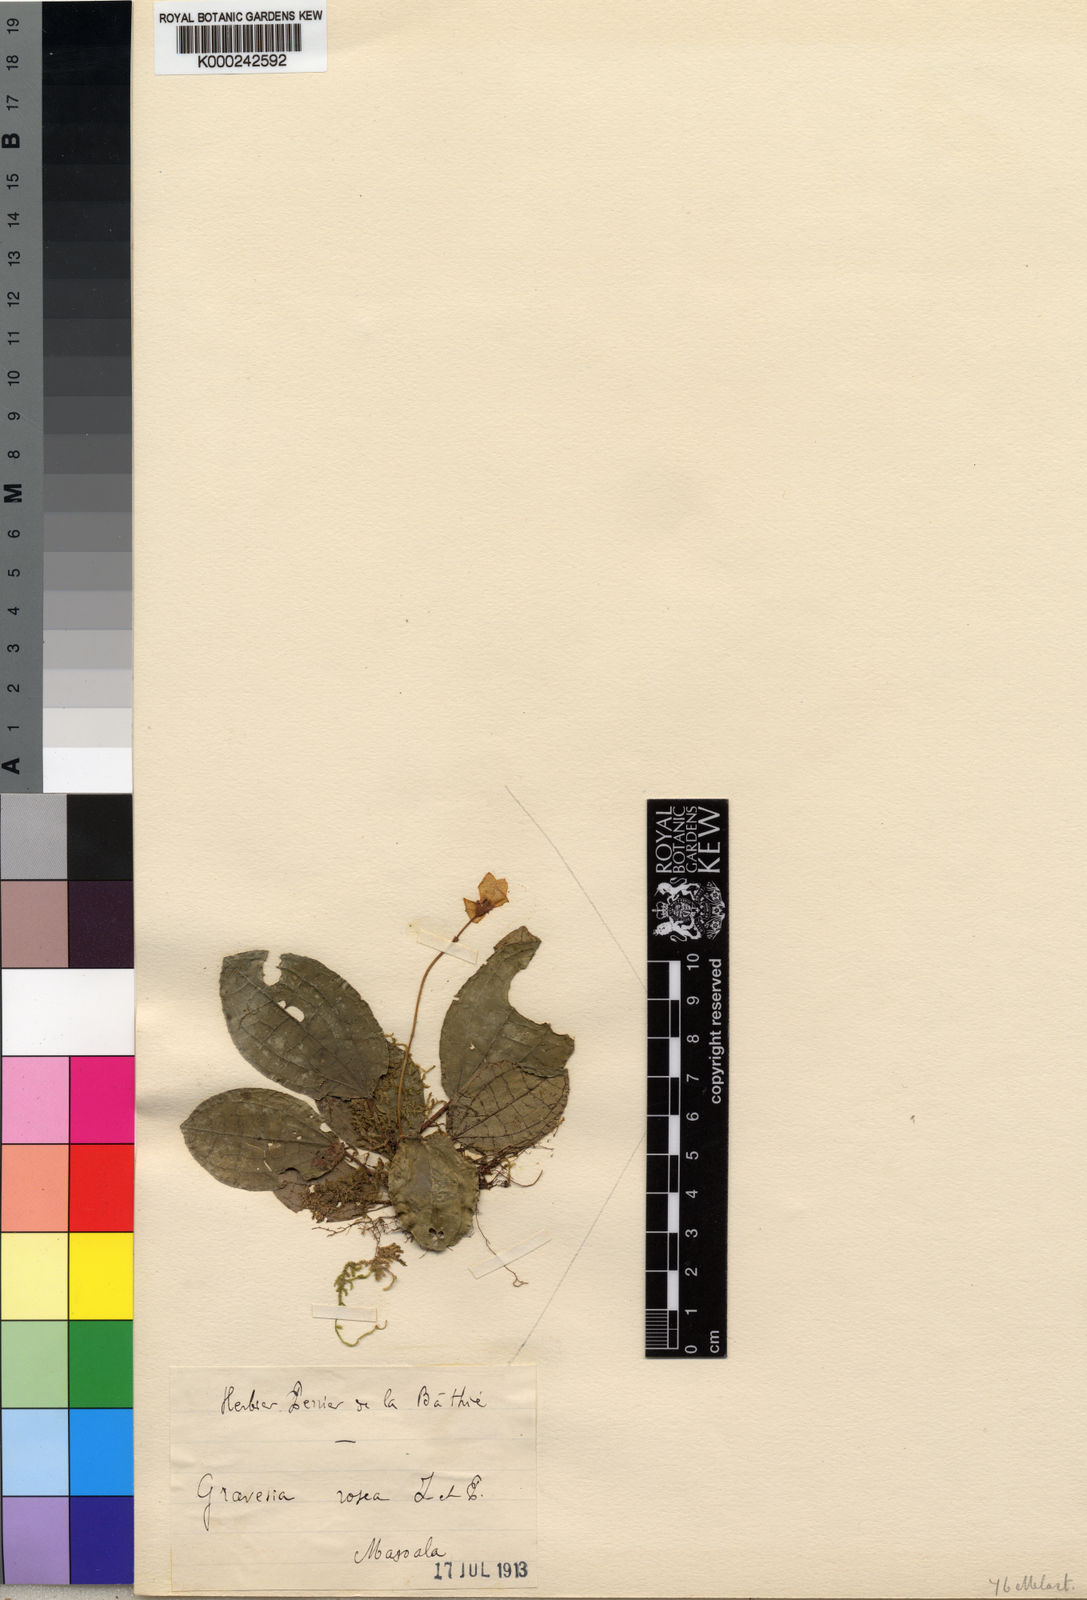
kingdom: Plantae
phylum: Tracheophyta
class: Magnoliopsida
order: Myrtales
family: Melastomataceae
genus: Gravesia
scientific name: Gravesia rosea
